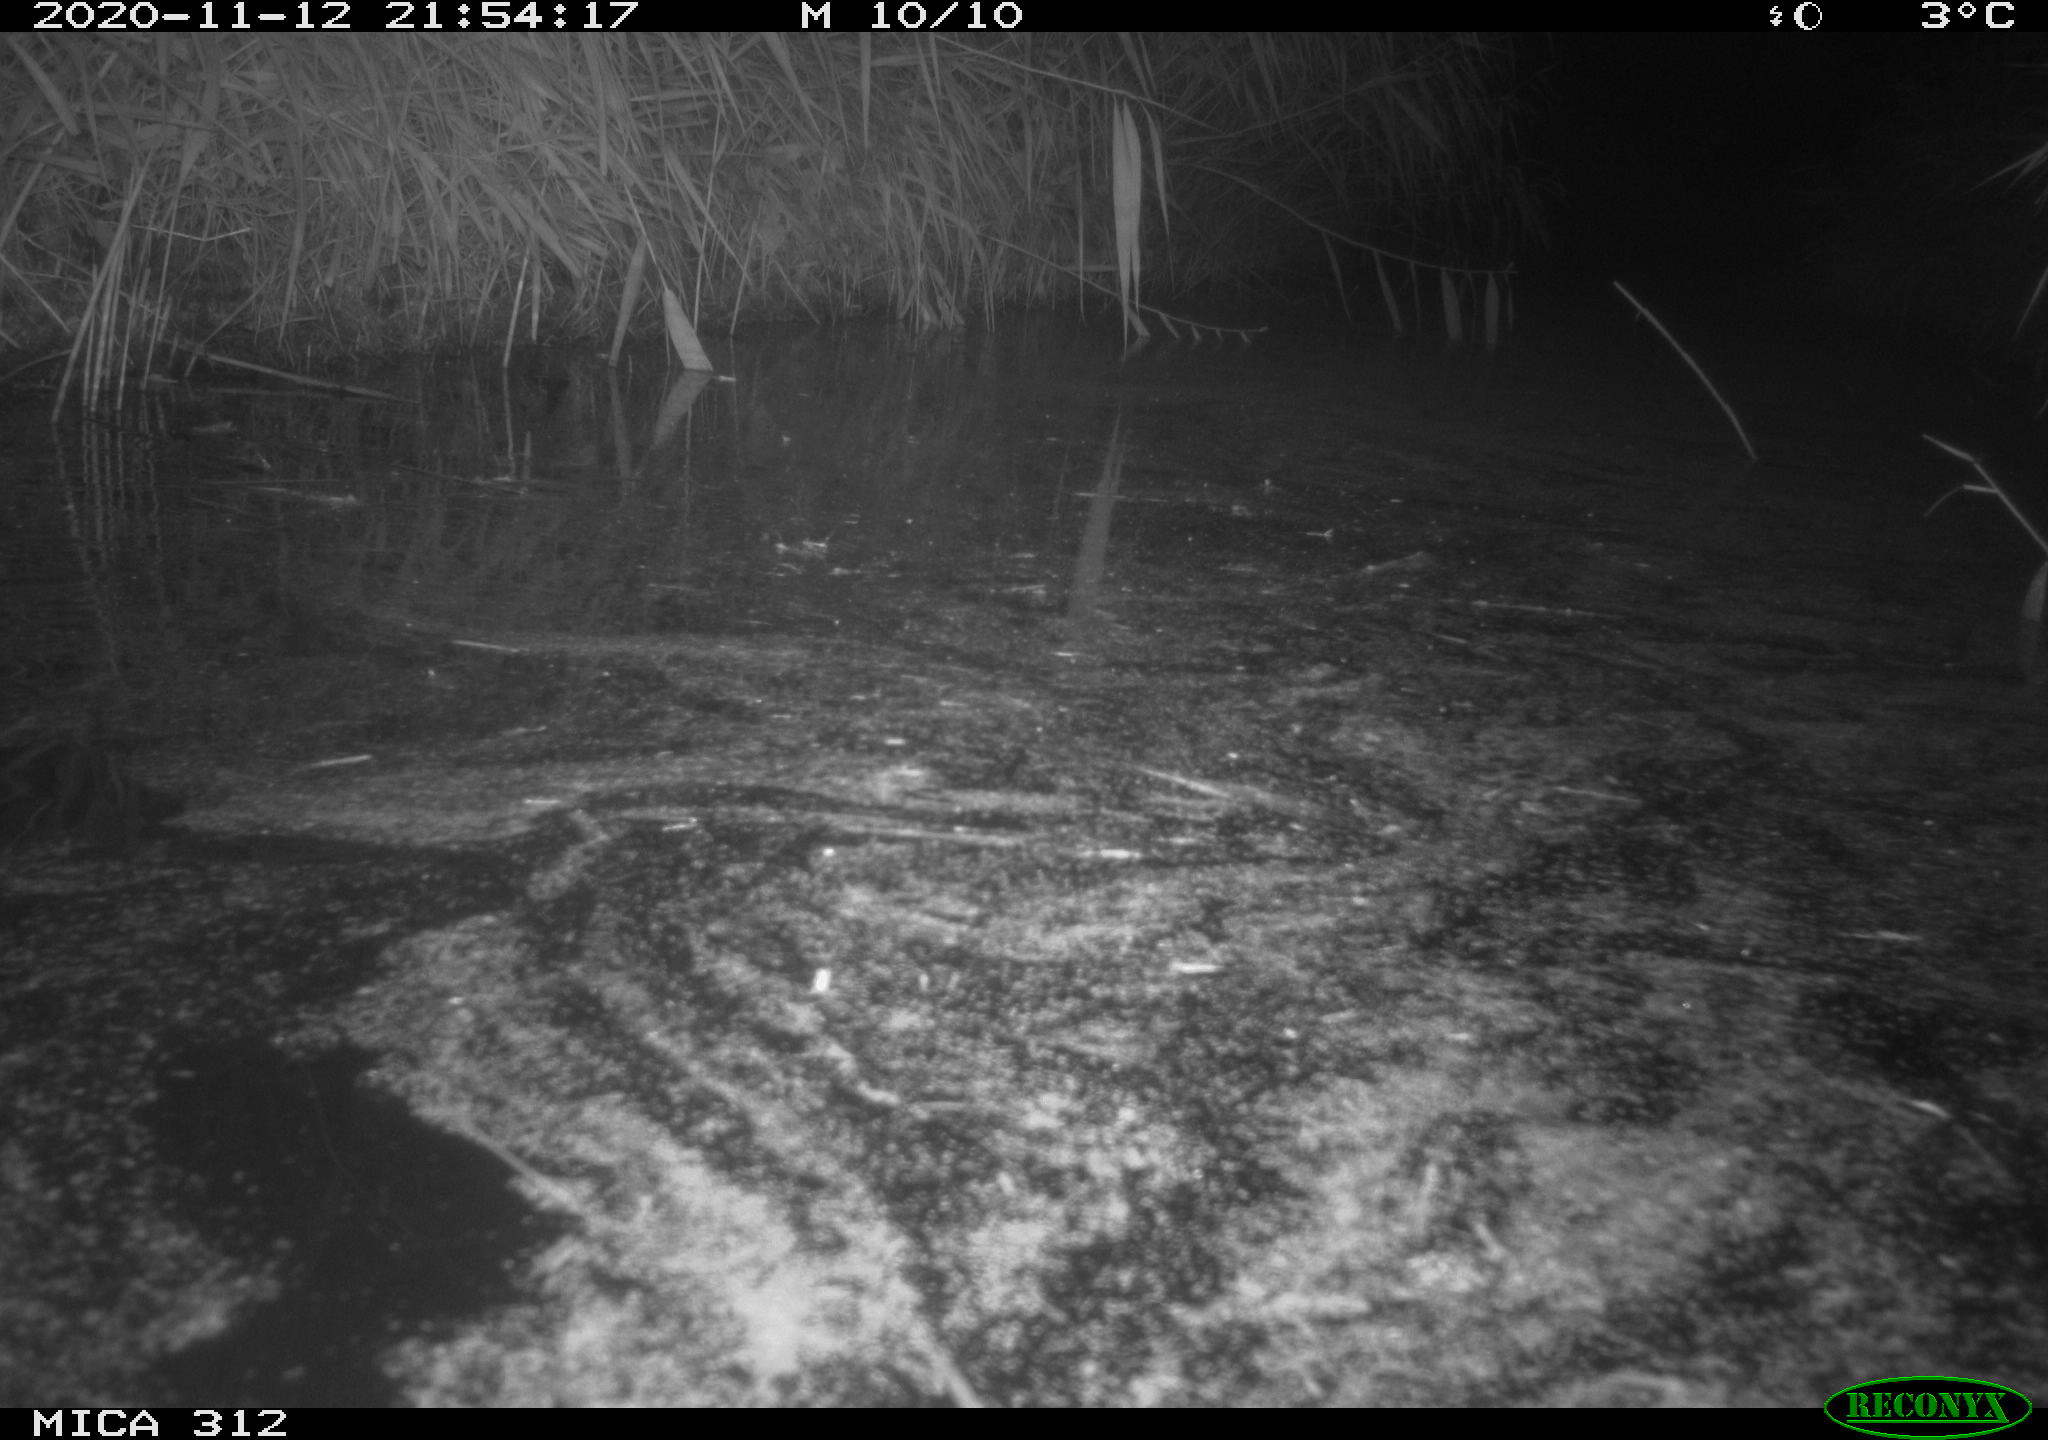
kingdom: Animalia
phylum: Chordata
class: Mammalia
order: Rodentia
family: Muridae
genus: Rattus
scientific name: Rattus norvegicus
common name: Brown rat
